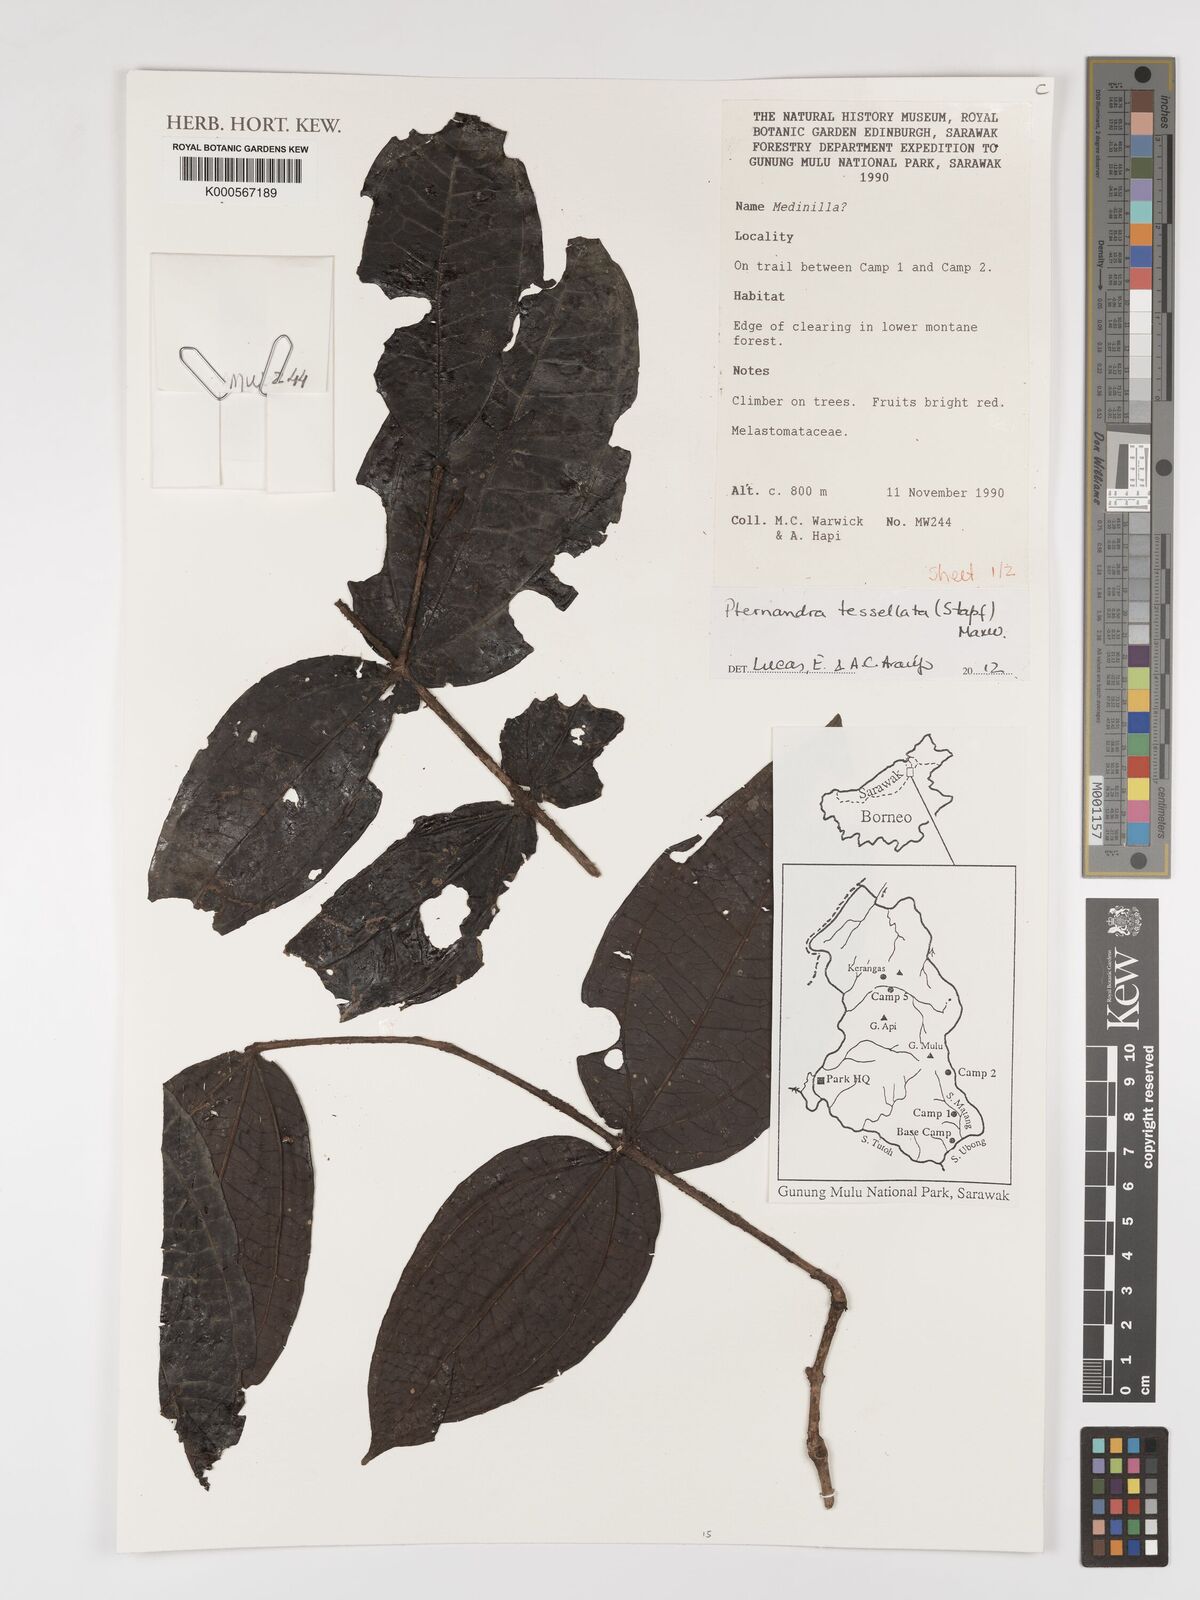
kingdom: Plantae
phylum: Tracheophyta
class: Magnoliopsida
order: Myrtales
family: Melastomataceae
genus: Pternandra
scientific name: Pternandra
